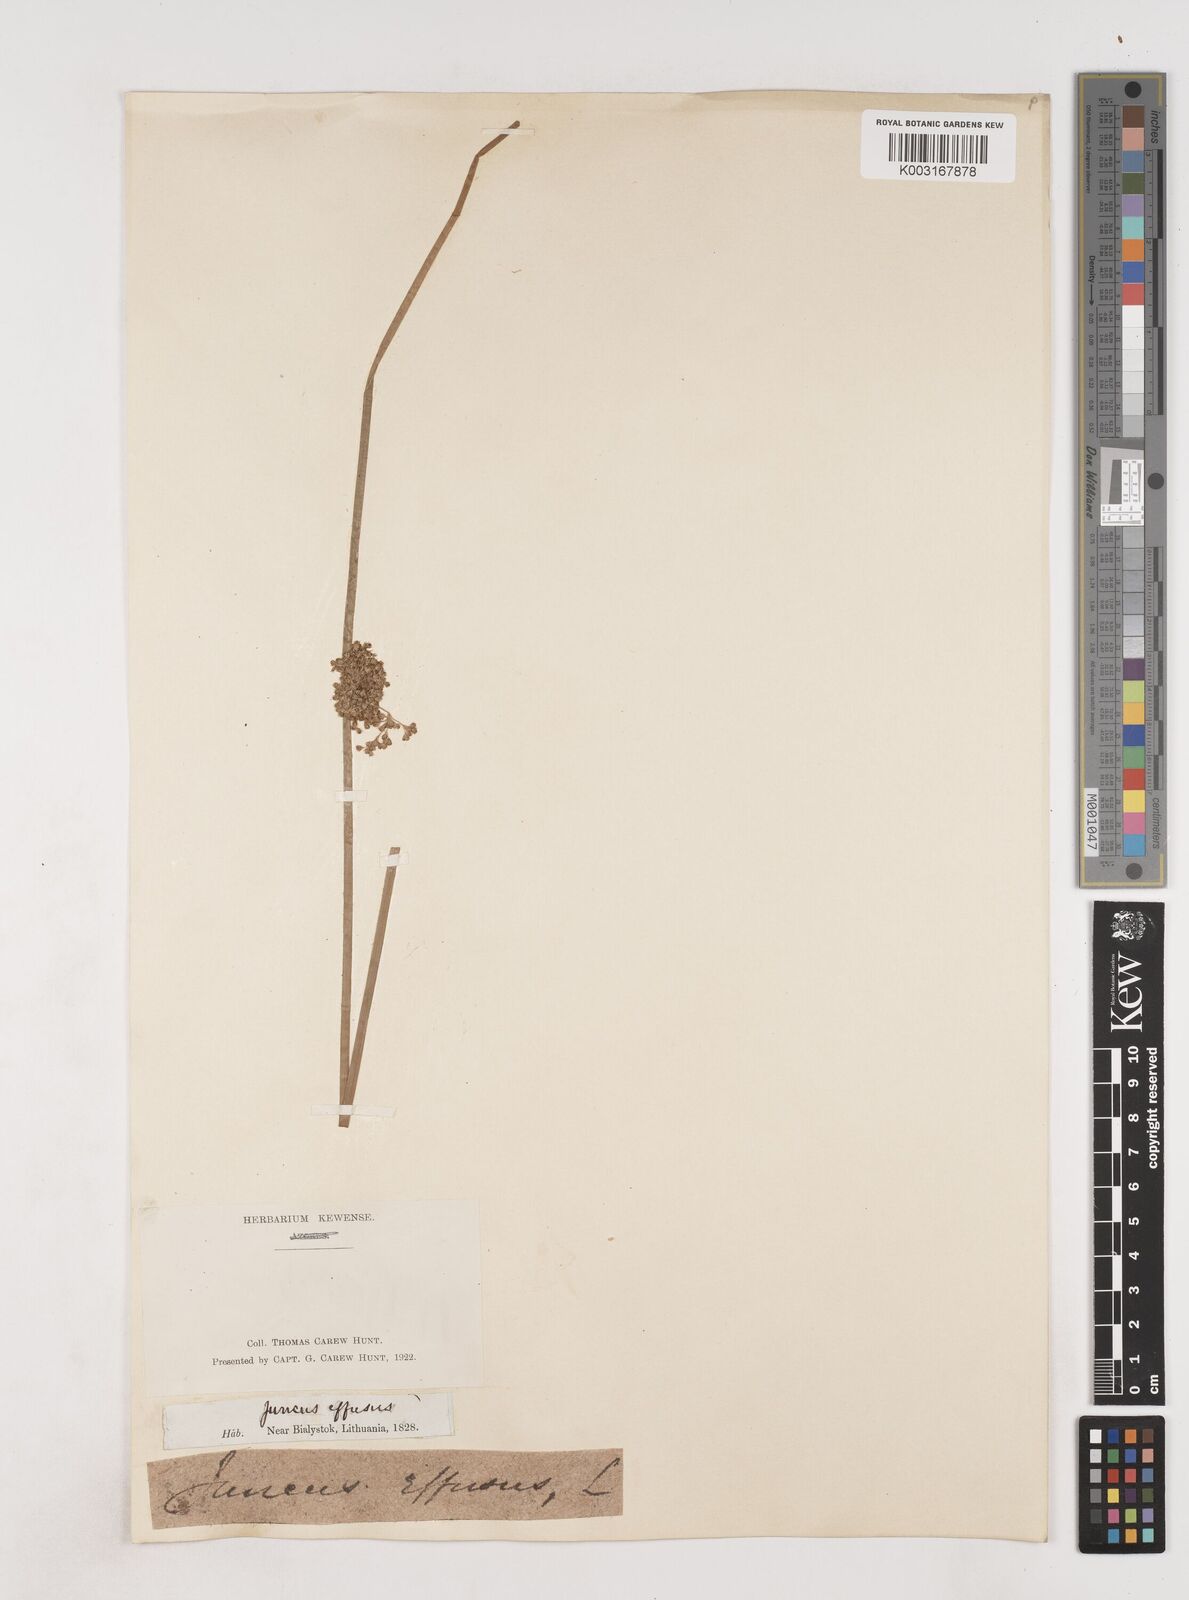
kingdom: Plantae
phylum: Tracheophyta
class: Liliopsida
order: Poales
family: Juncaceae
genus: Juncus
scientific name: Juncus effusus
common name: Soft rush
